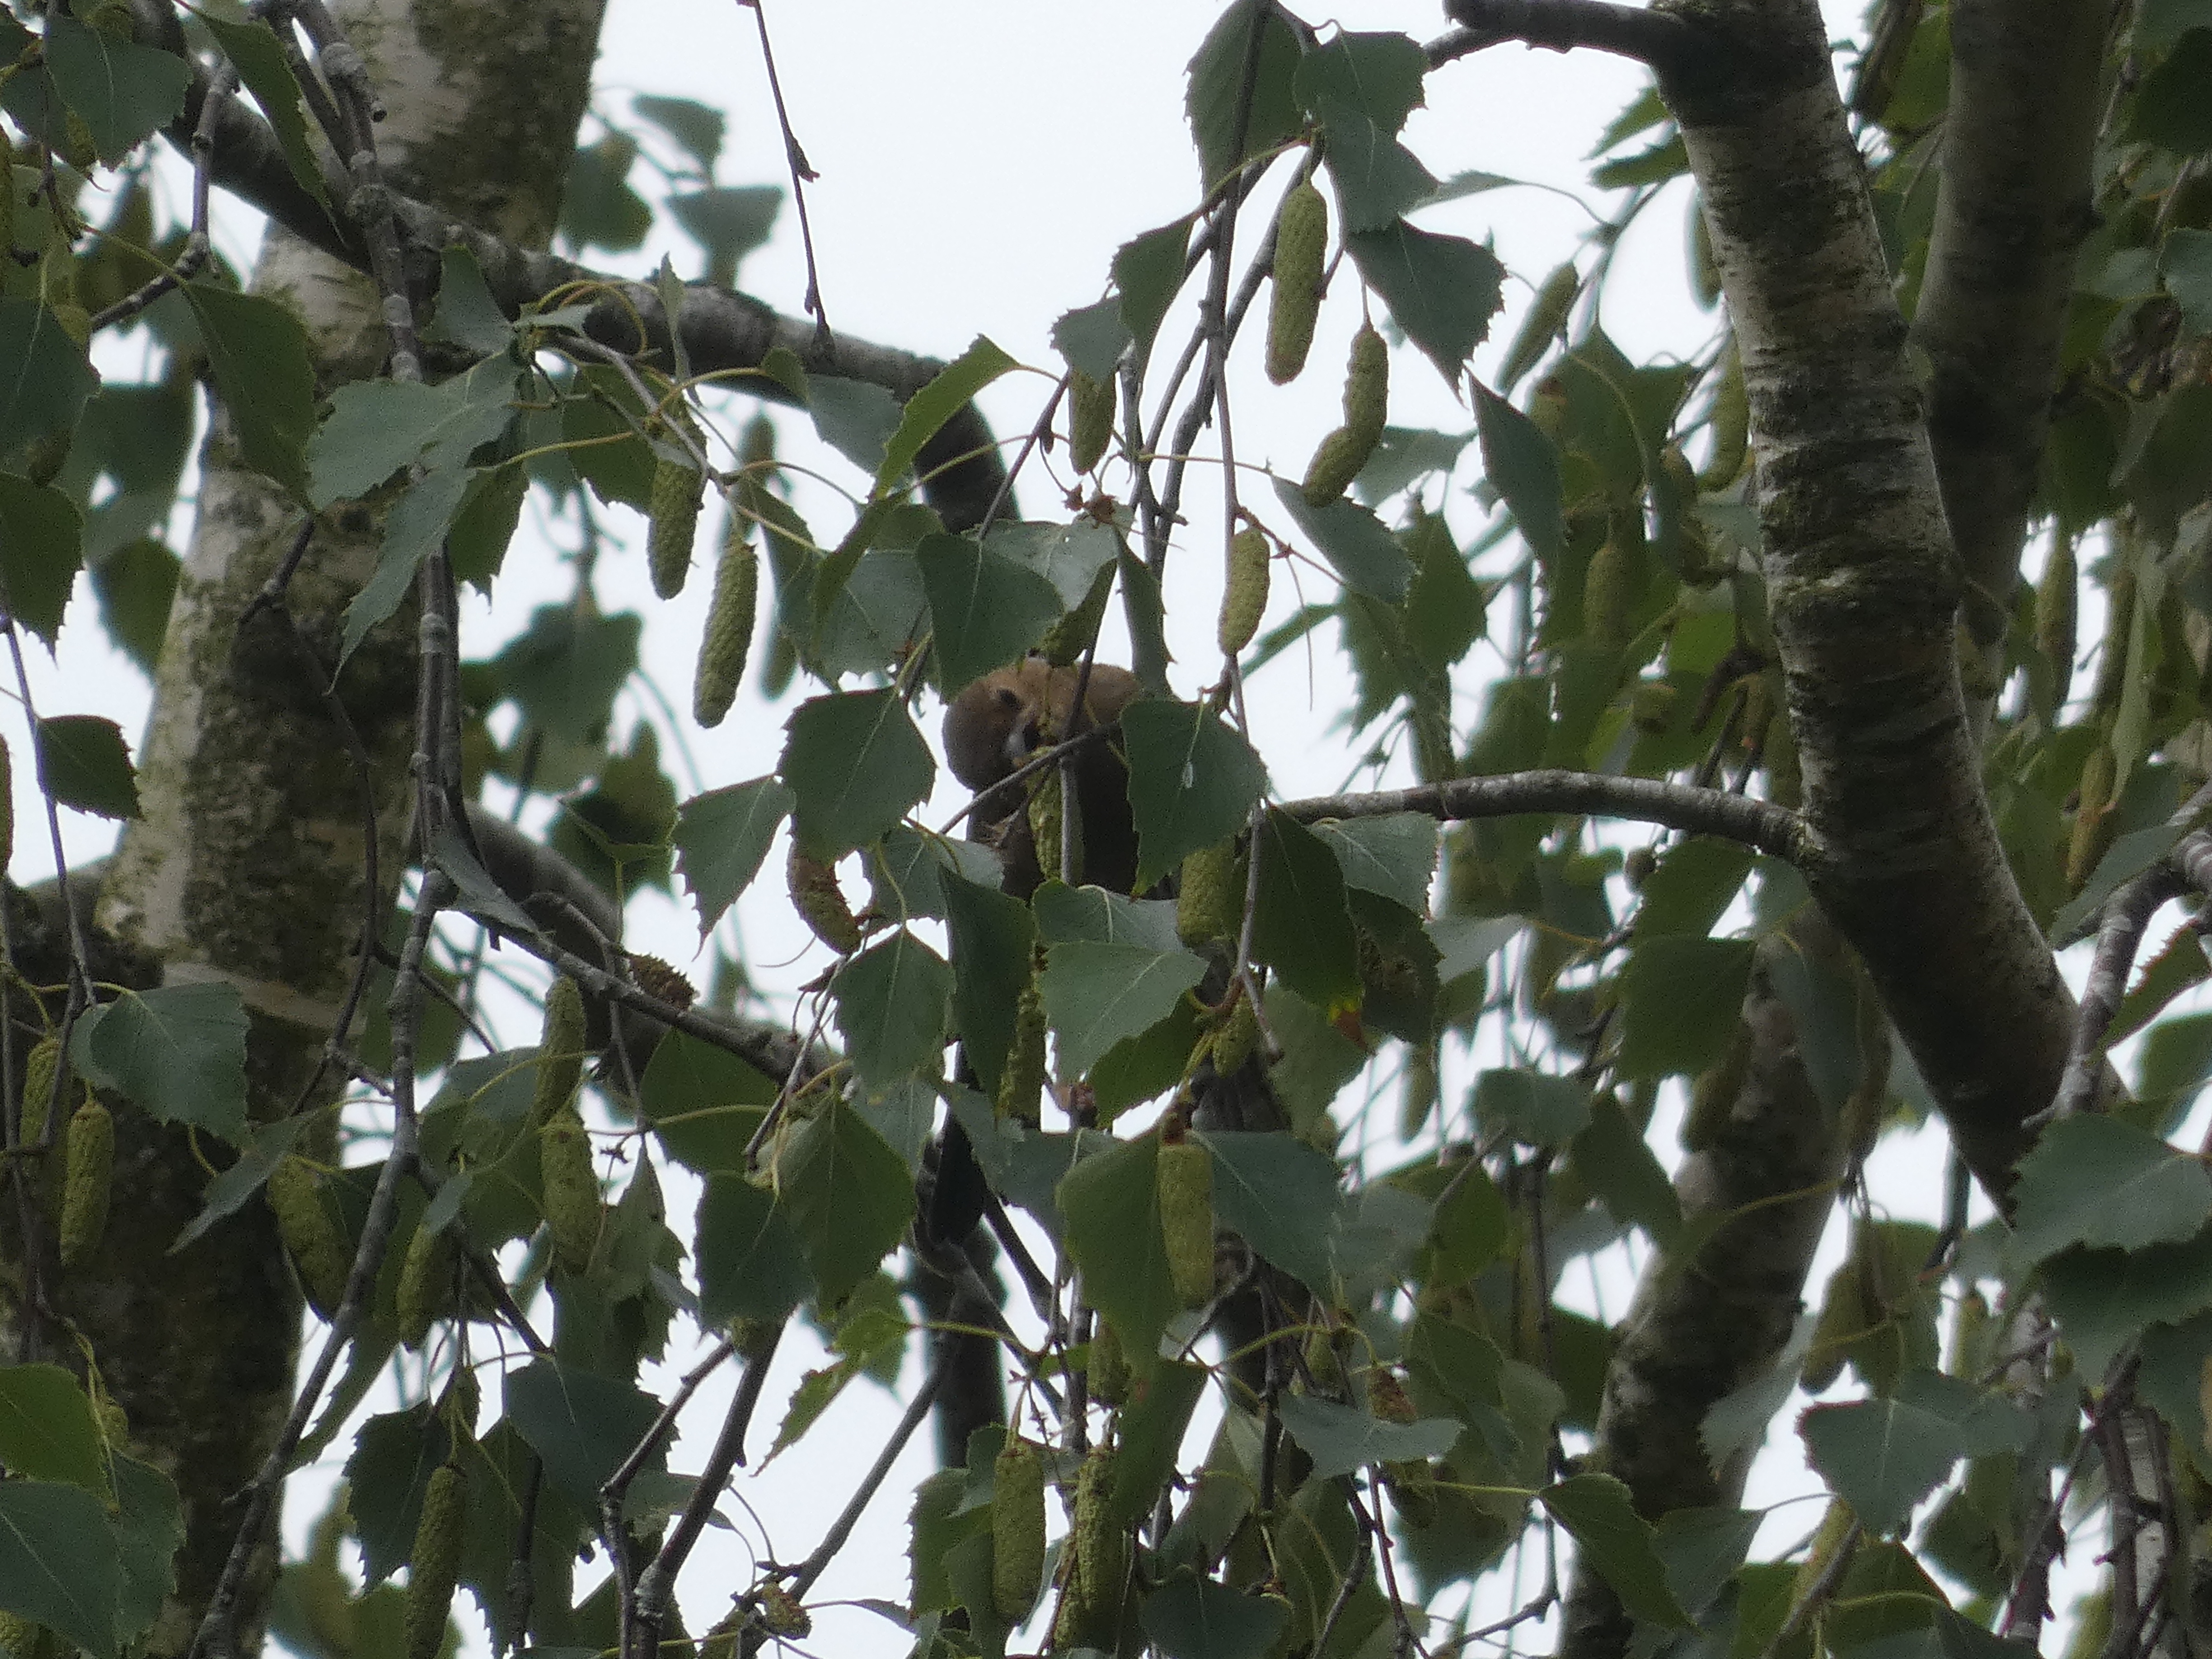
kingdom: Animalia
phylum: Chordata
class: Aves
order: Passeriformes
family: Fringillidae
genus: Pyrrhula
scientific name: Pyrrhula pyrrhula
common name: Dompap
